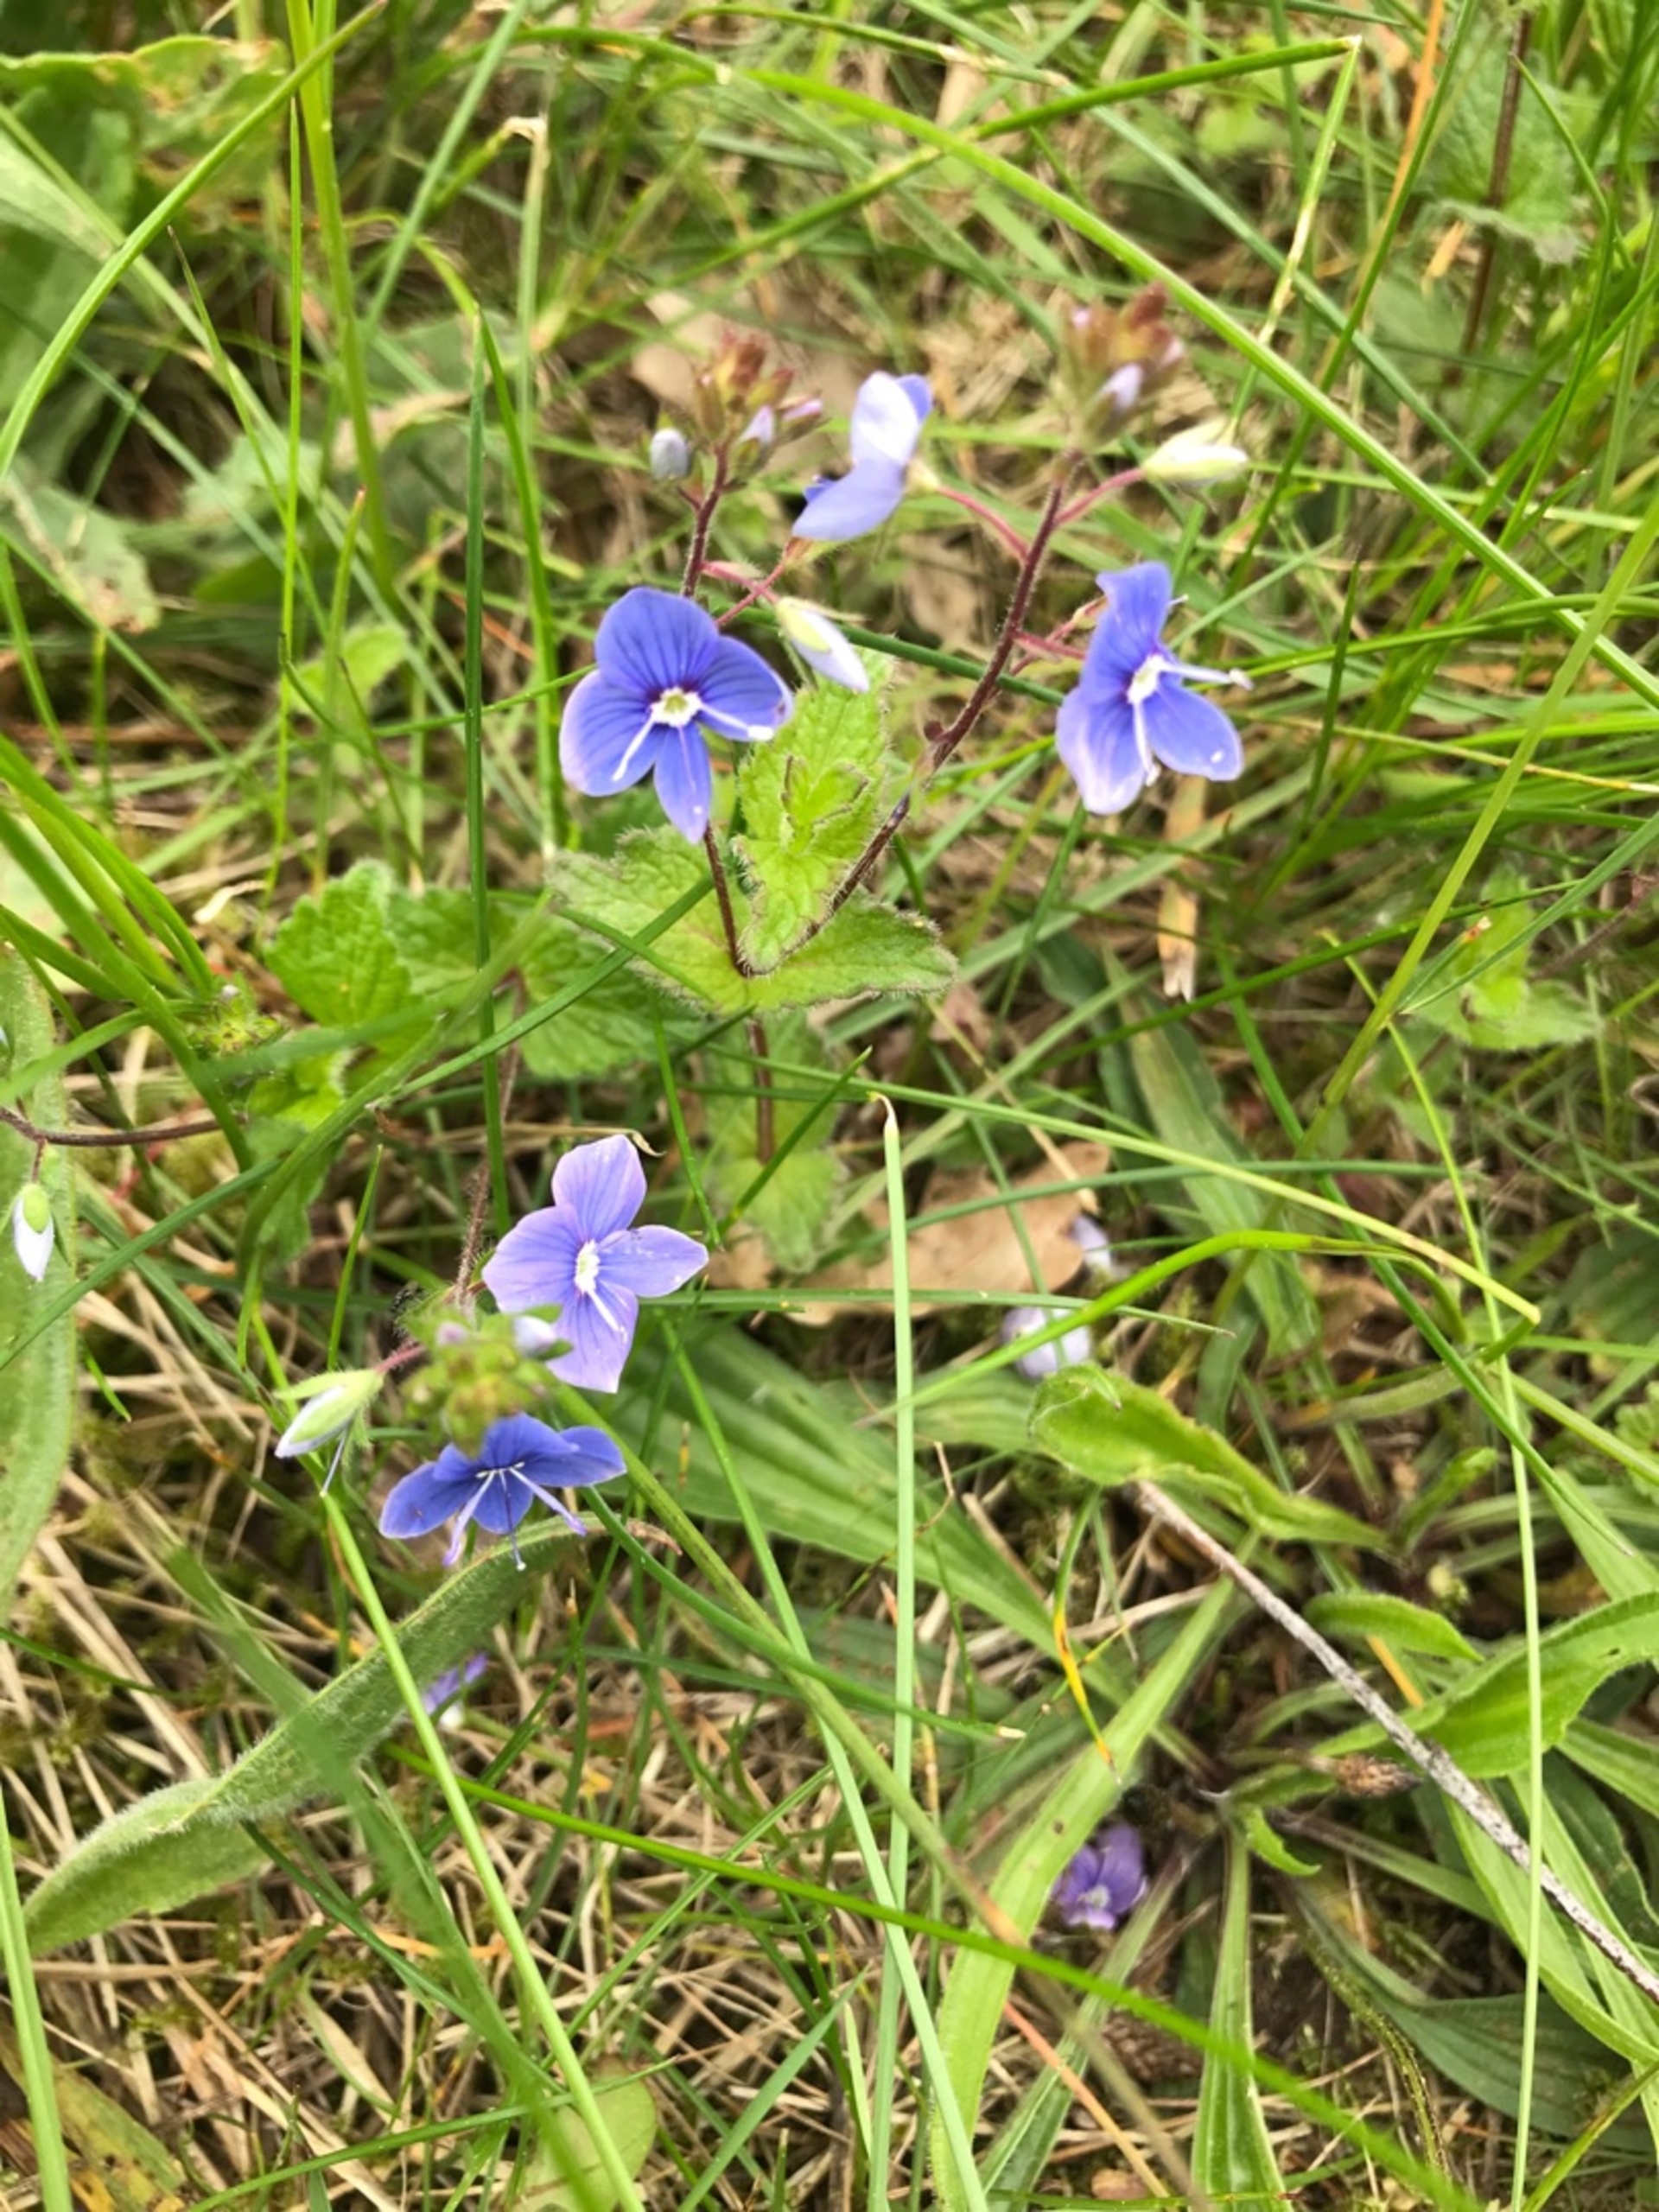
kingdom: Plantae
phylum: Tracheophyta
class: Magnoliopsida
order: Lamiales
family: Plantaginaceae
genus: Veronica
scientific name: Veronica chamaedrys
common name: Tveskægget ærenpris
